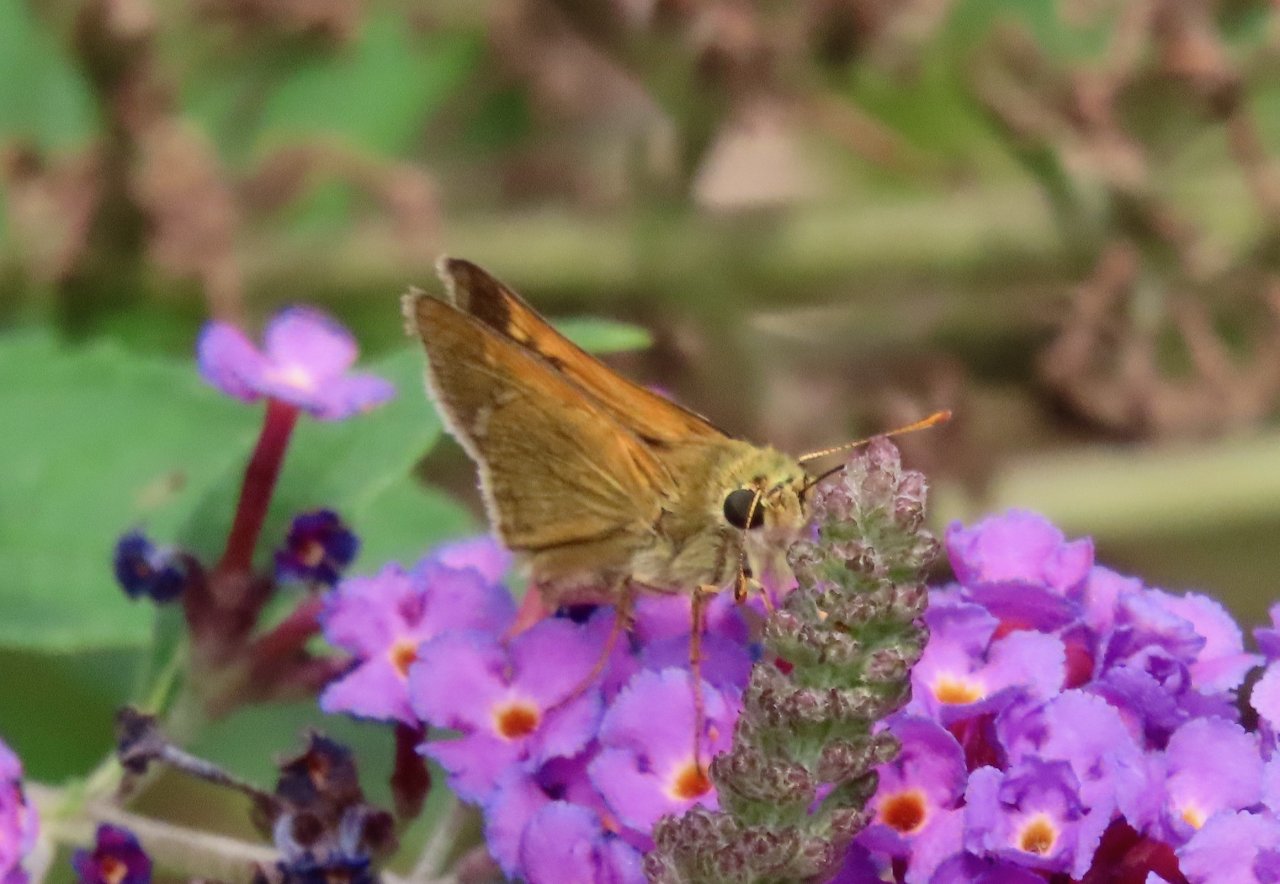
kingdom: Animalia
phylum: Arthropoda
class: Insecta
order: Lepidoptera
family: Hesperiidae
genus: Polites
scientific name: Polites themistocles
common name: Tawny-edged Skipper
